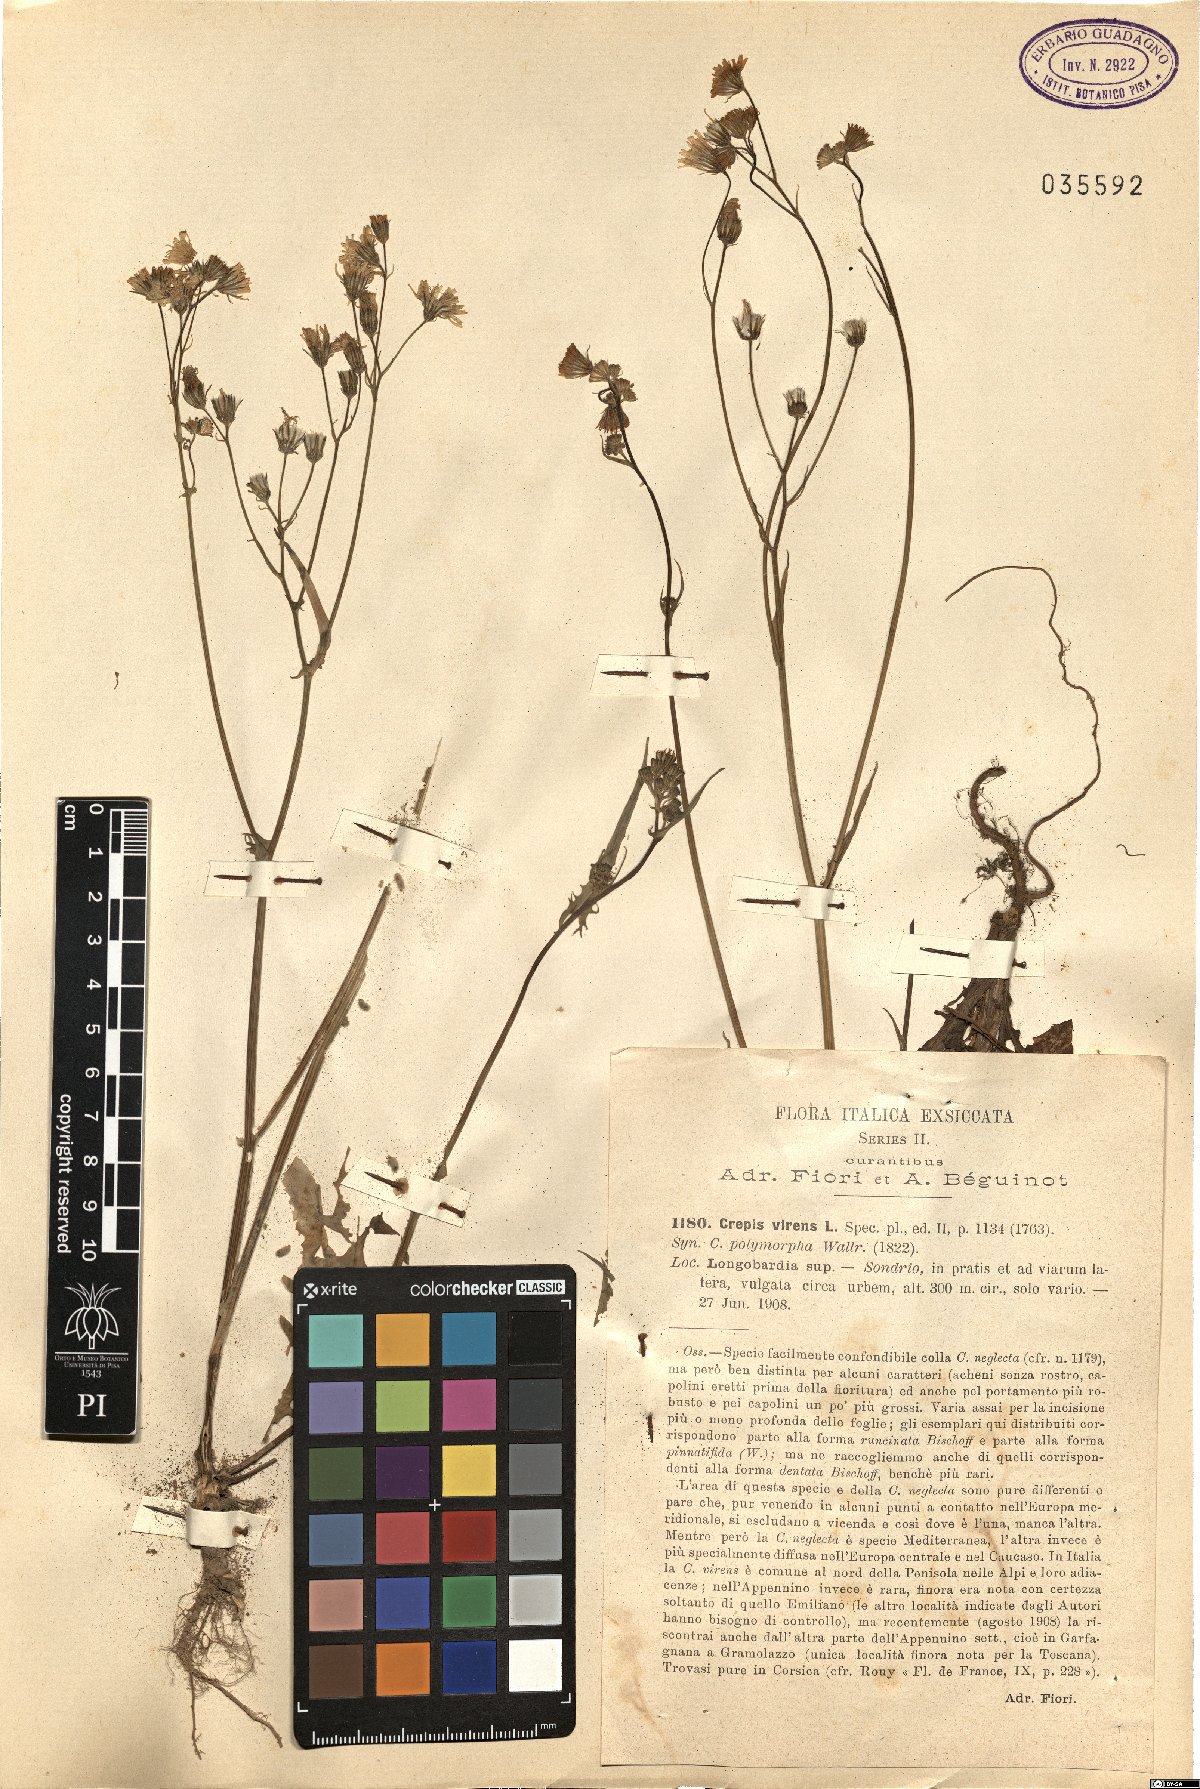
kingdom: Plantae
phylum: Tracheophyta
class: Magnoliopsida
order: Asterales
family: Asteraceae
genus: Crepis
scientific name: Crepis capillaris
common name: Smooth hawksbeard
